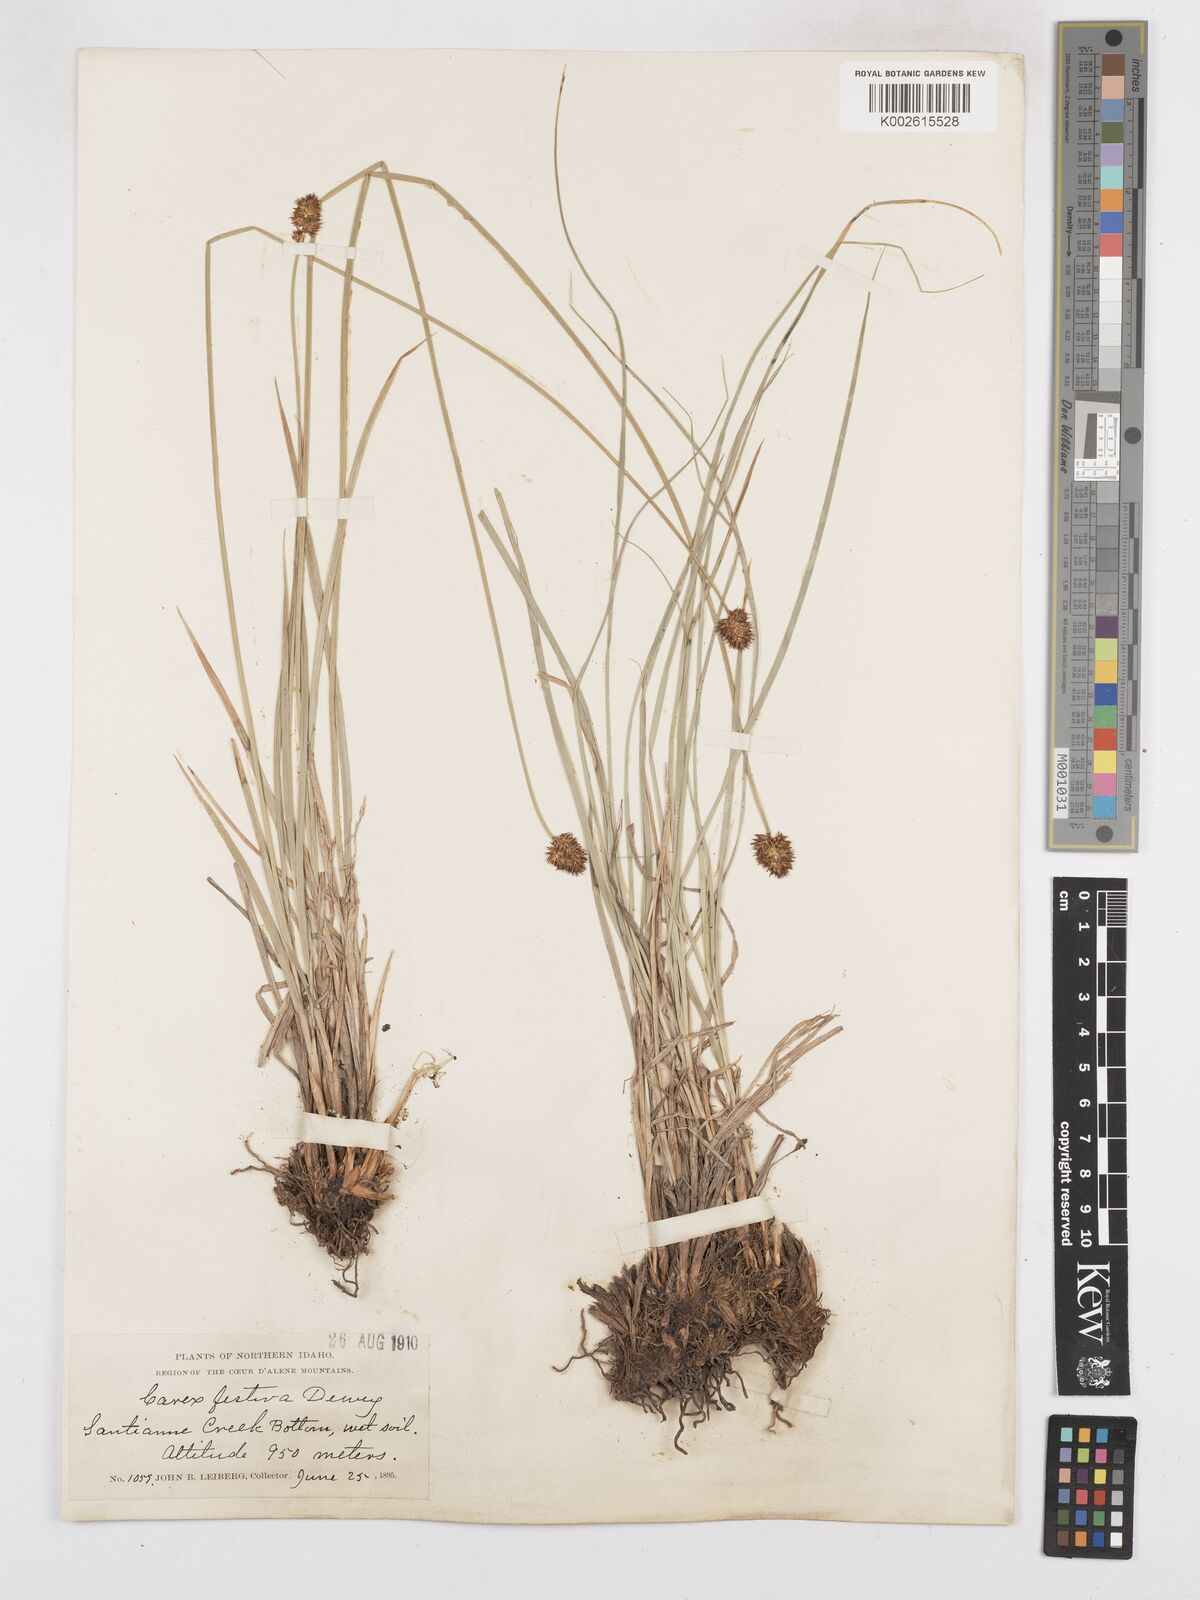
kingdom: Plantae
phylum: Tracheophyta
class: Liliopsida
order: Poales
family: Cyperaceae
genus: Carex
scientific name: Carex macloviana
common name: Falkland island sedge
